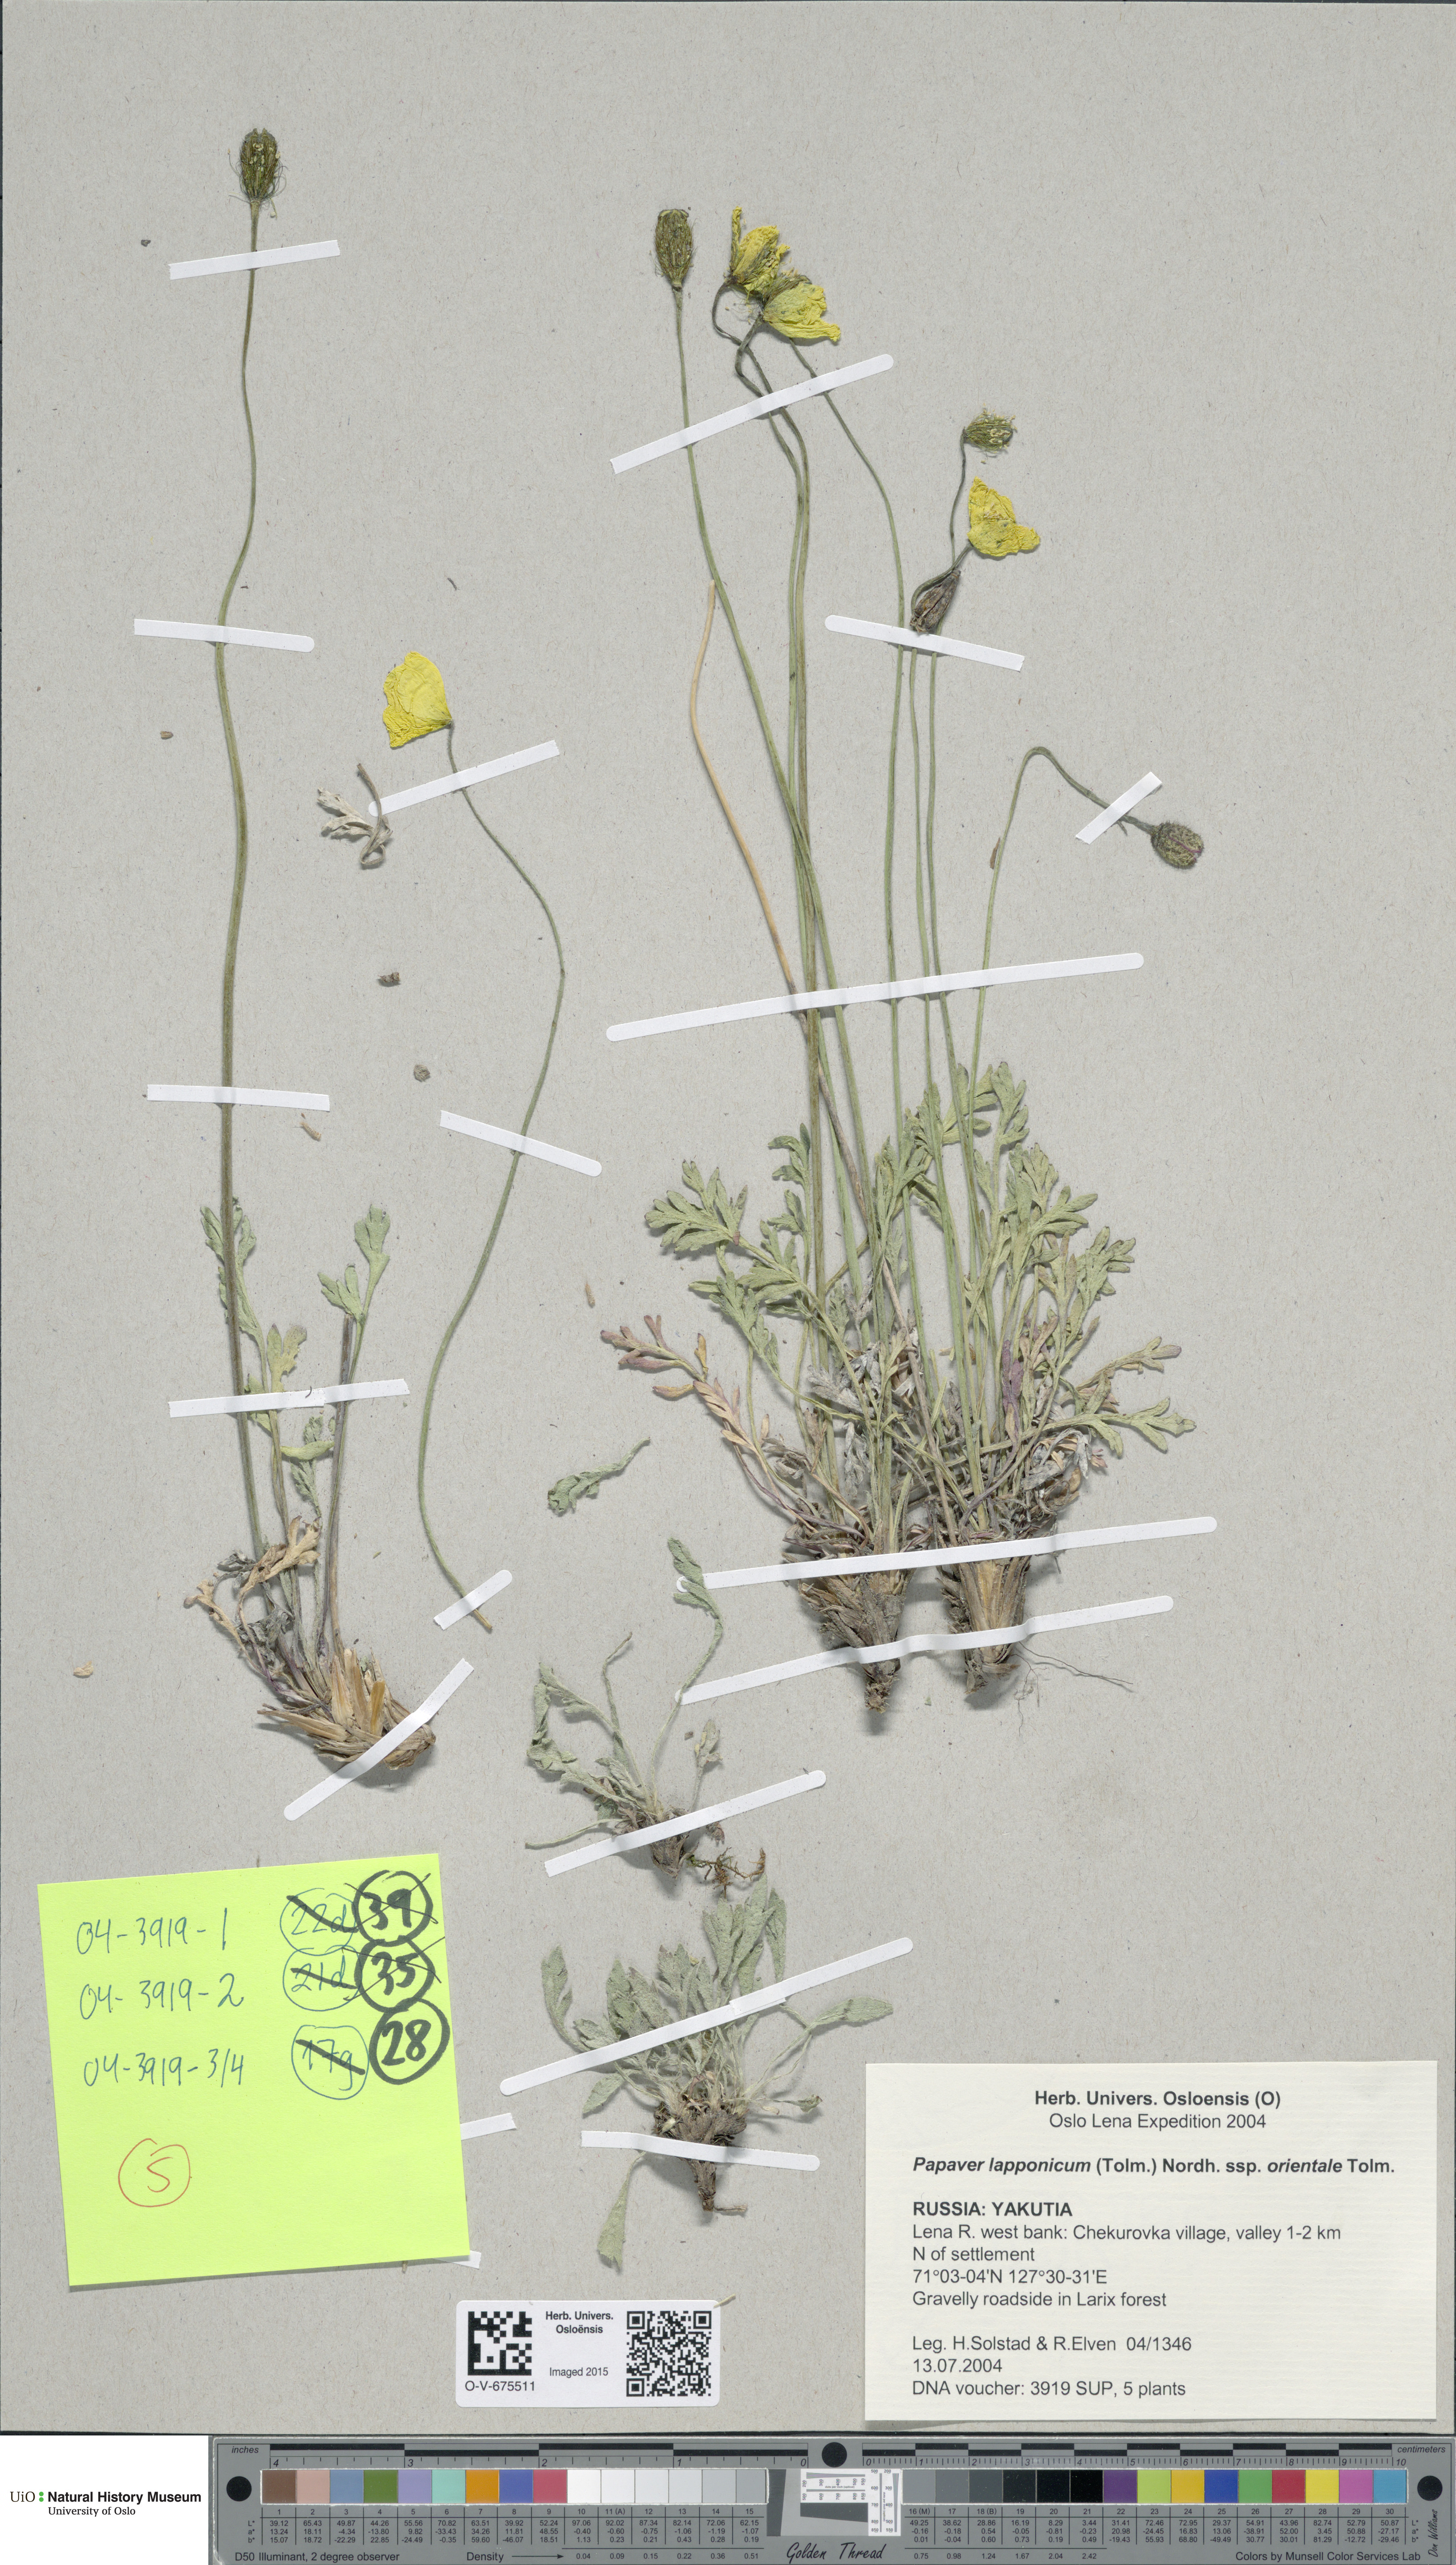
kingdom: Plantae
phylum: Tracheophyta
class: Magnoliopsida
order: Ranunculales
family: Papaveraceae
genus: Papaver
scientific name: Papaver lapponicum
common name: Lapland poppy
